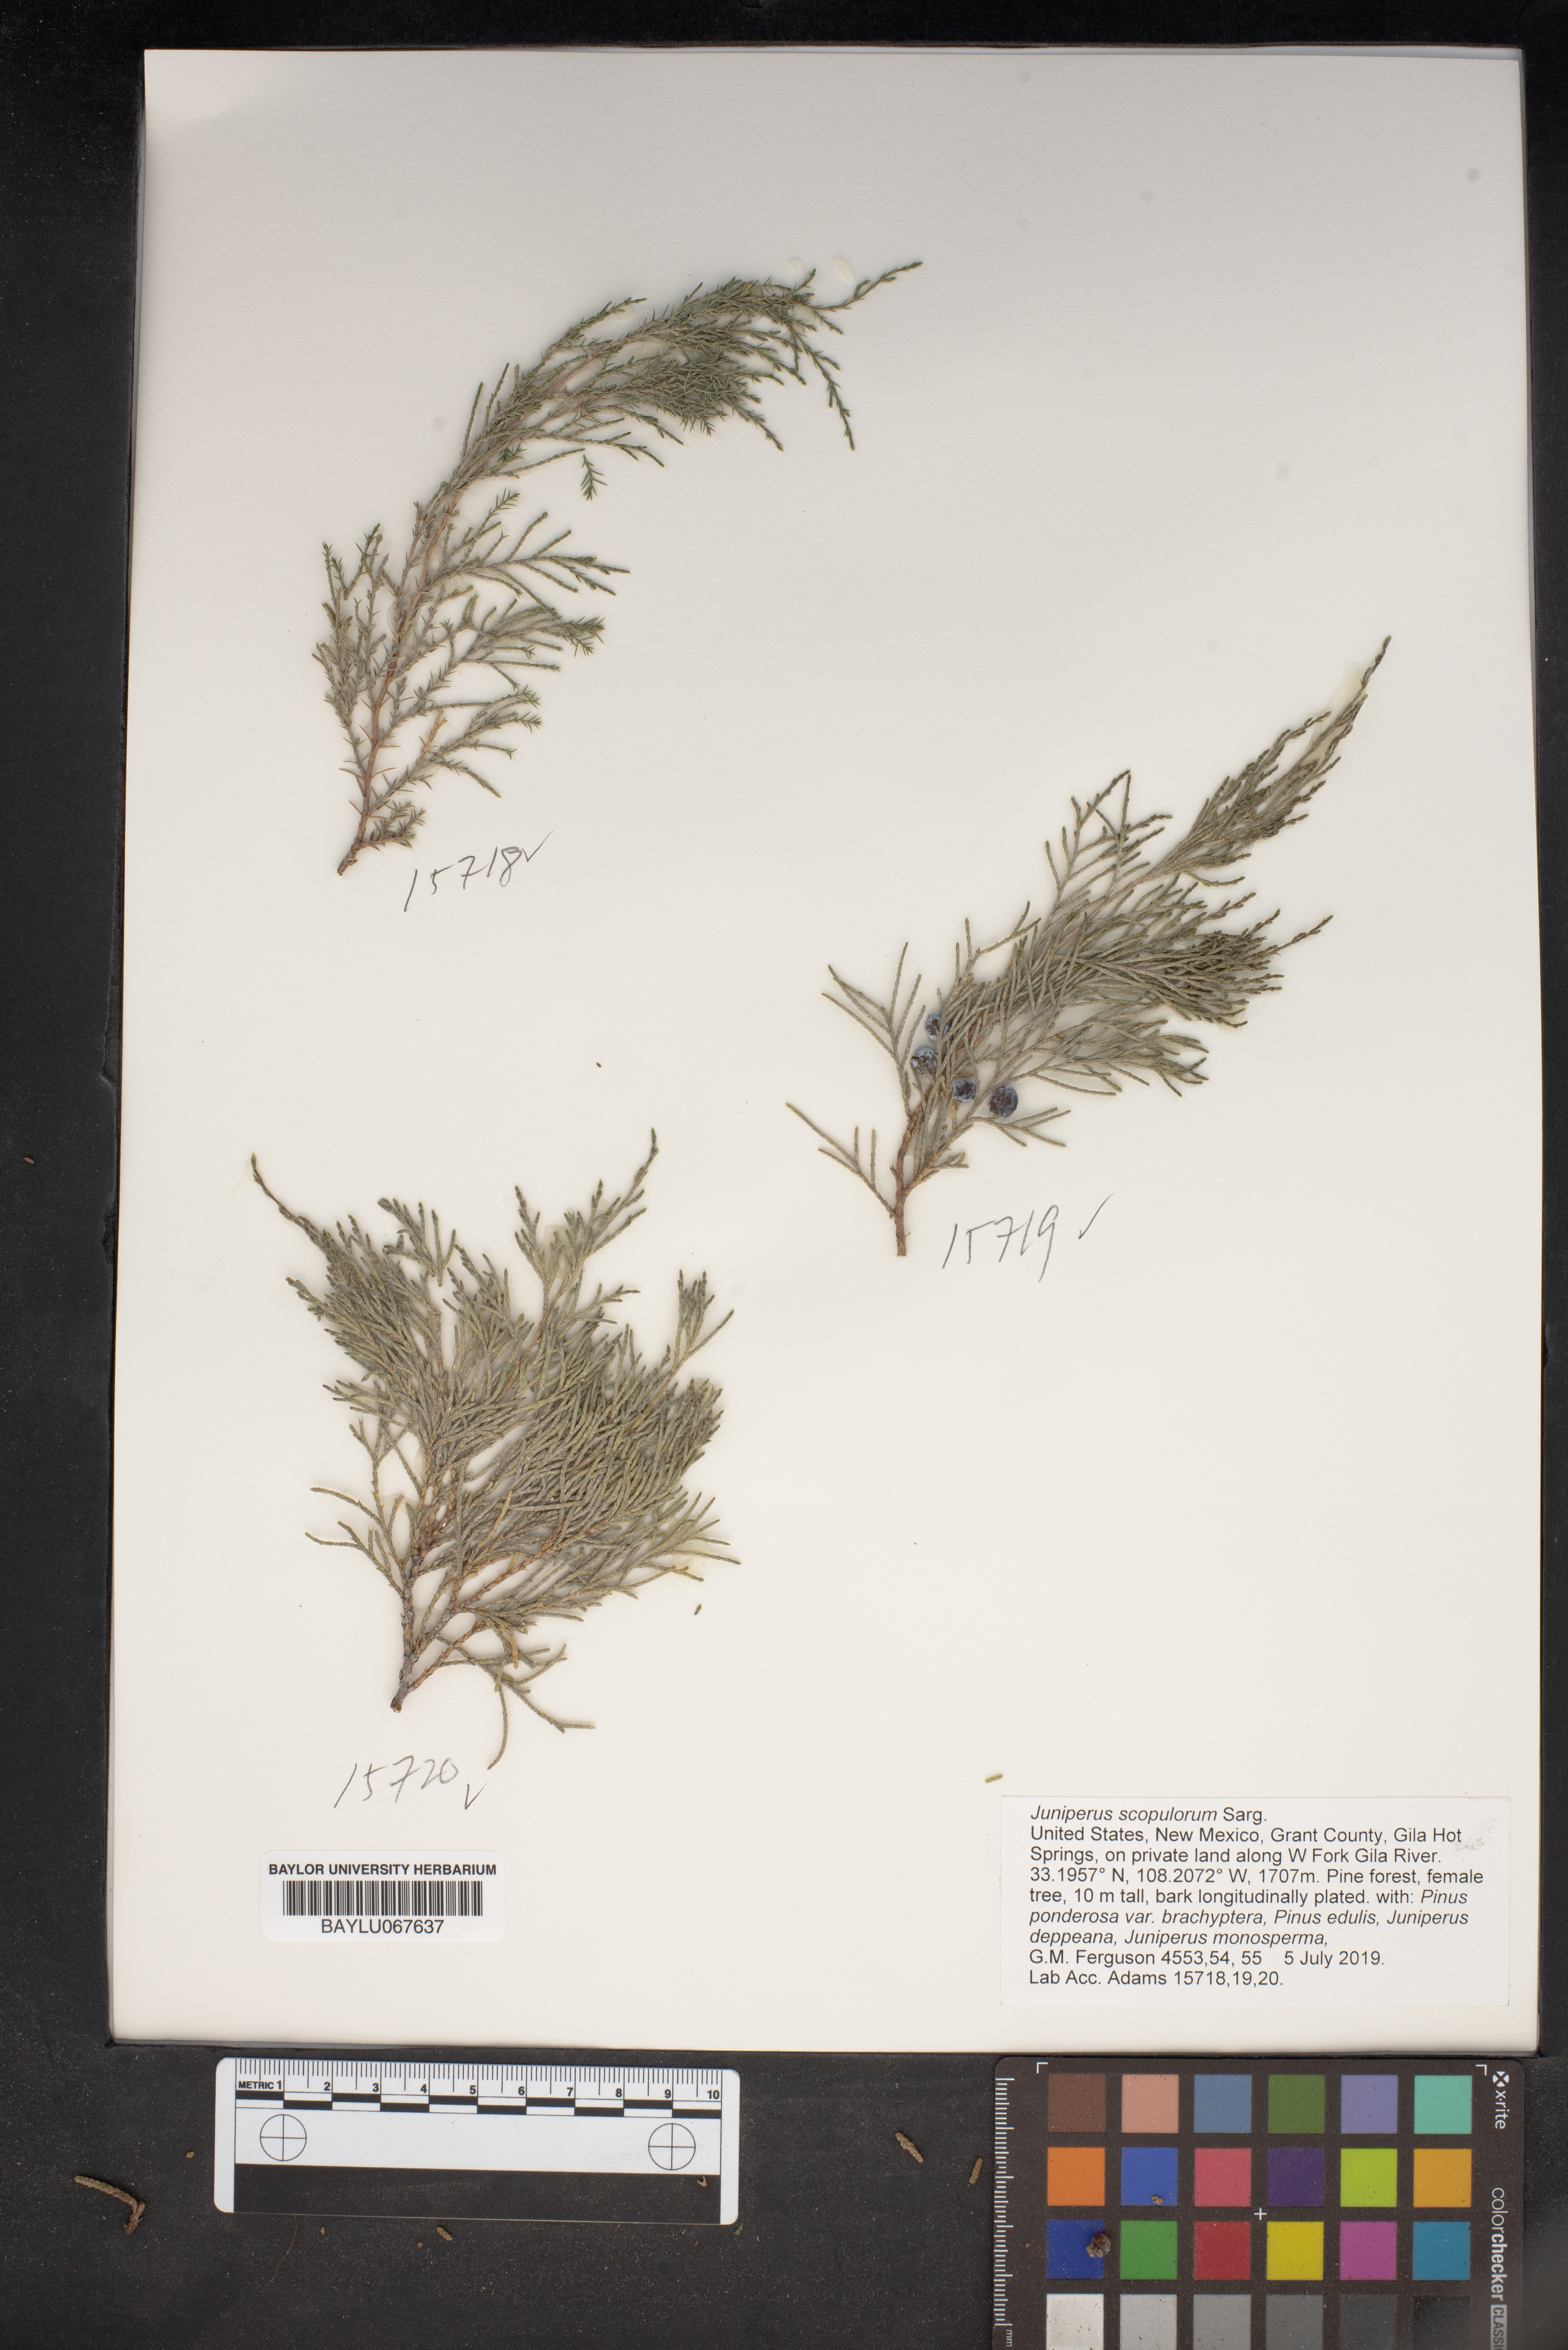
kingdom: Plantae
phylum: Tracheophyta
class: Pinopsida
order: Pinales
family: Cupressaceae
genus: Juniperus
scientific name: Juniperus scopulorum
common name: Rocky mountain juniper
